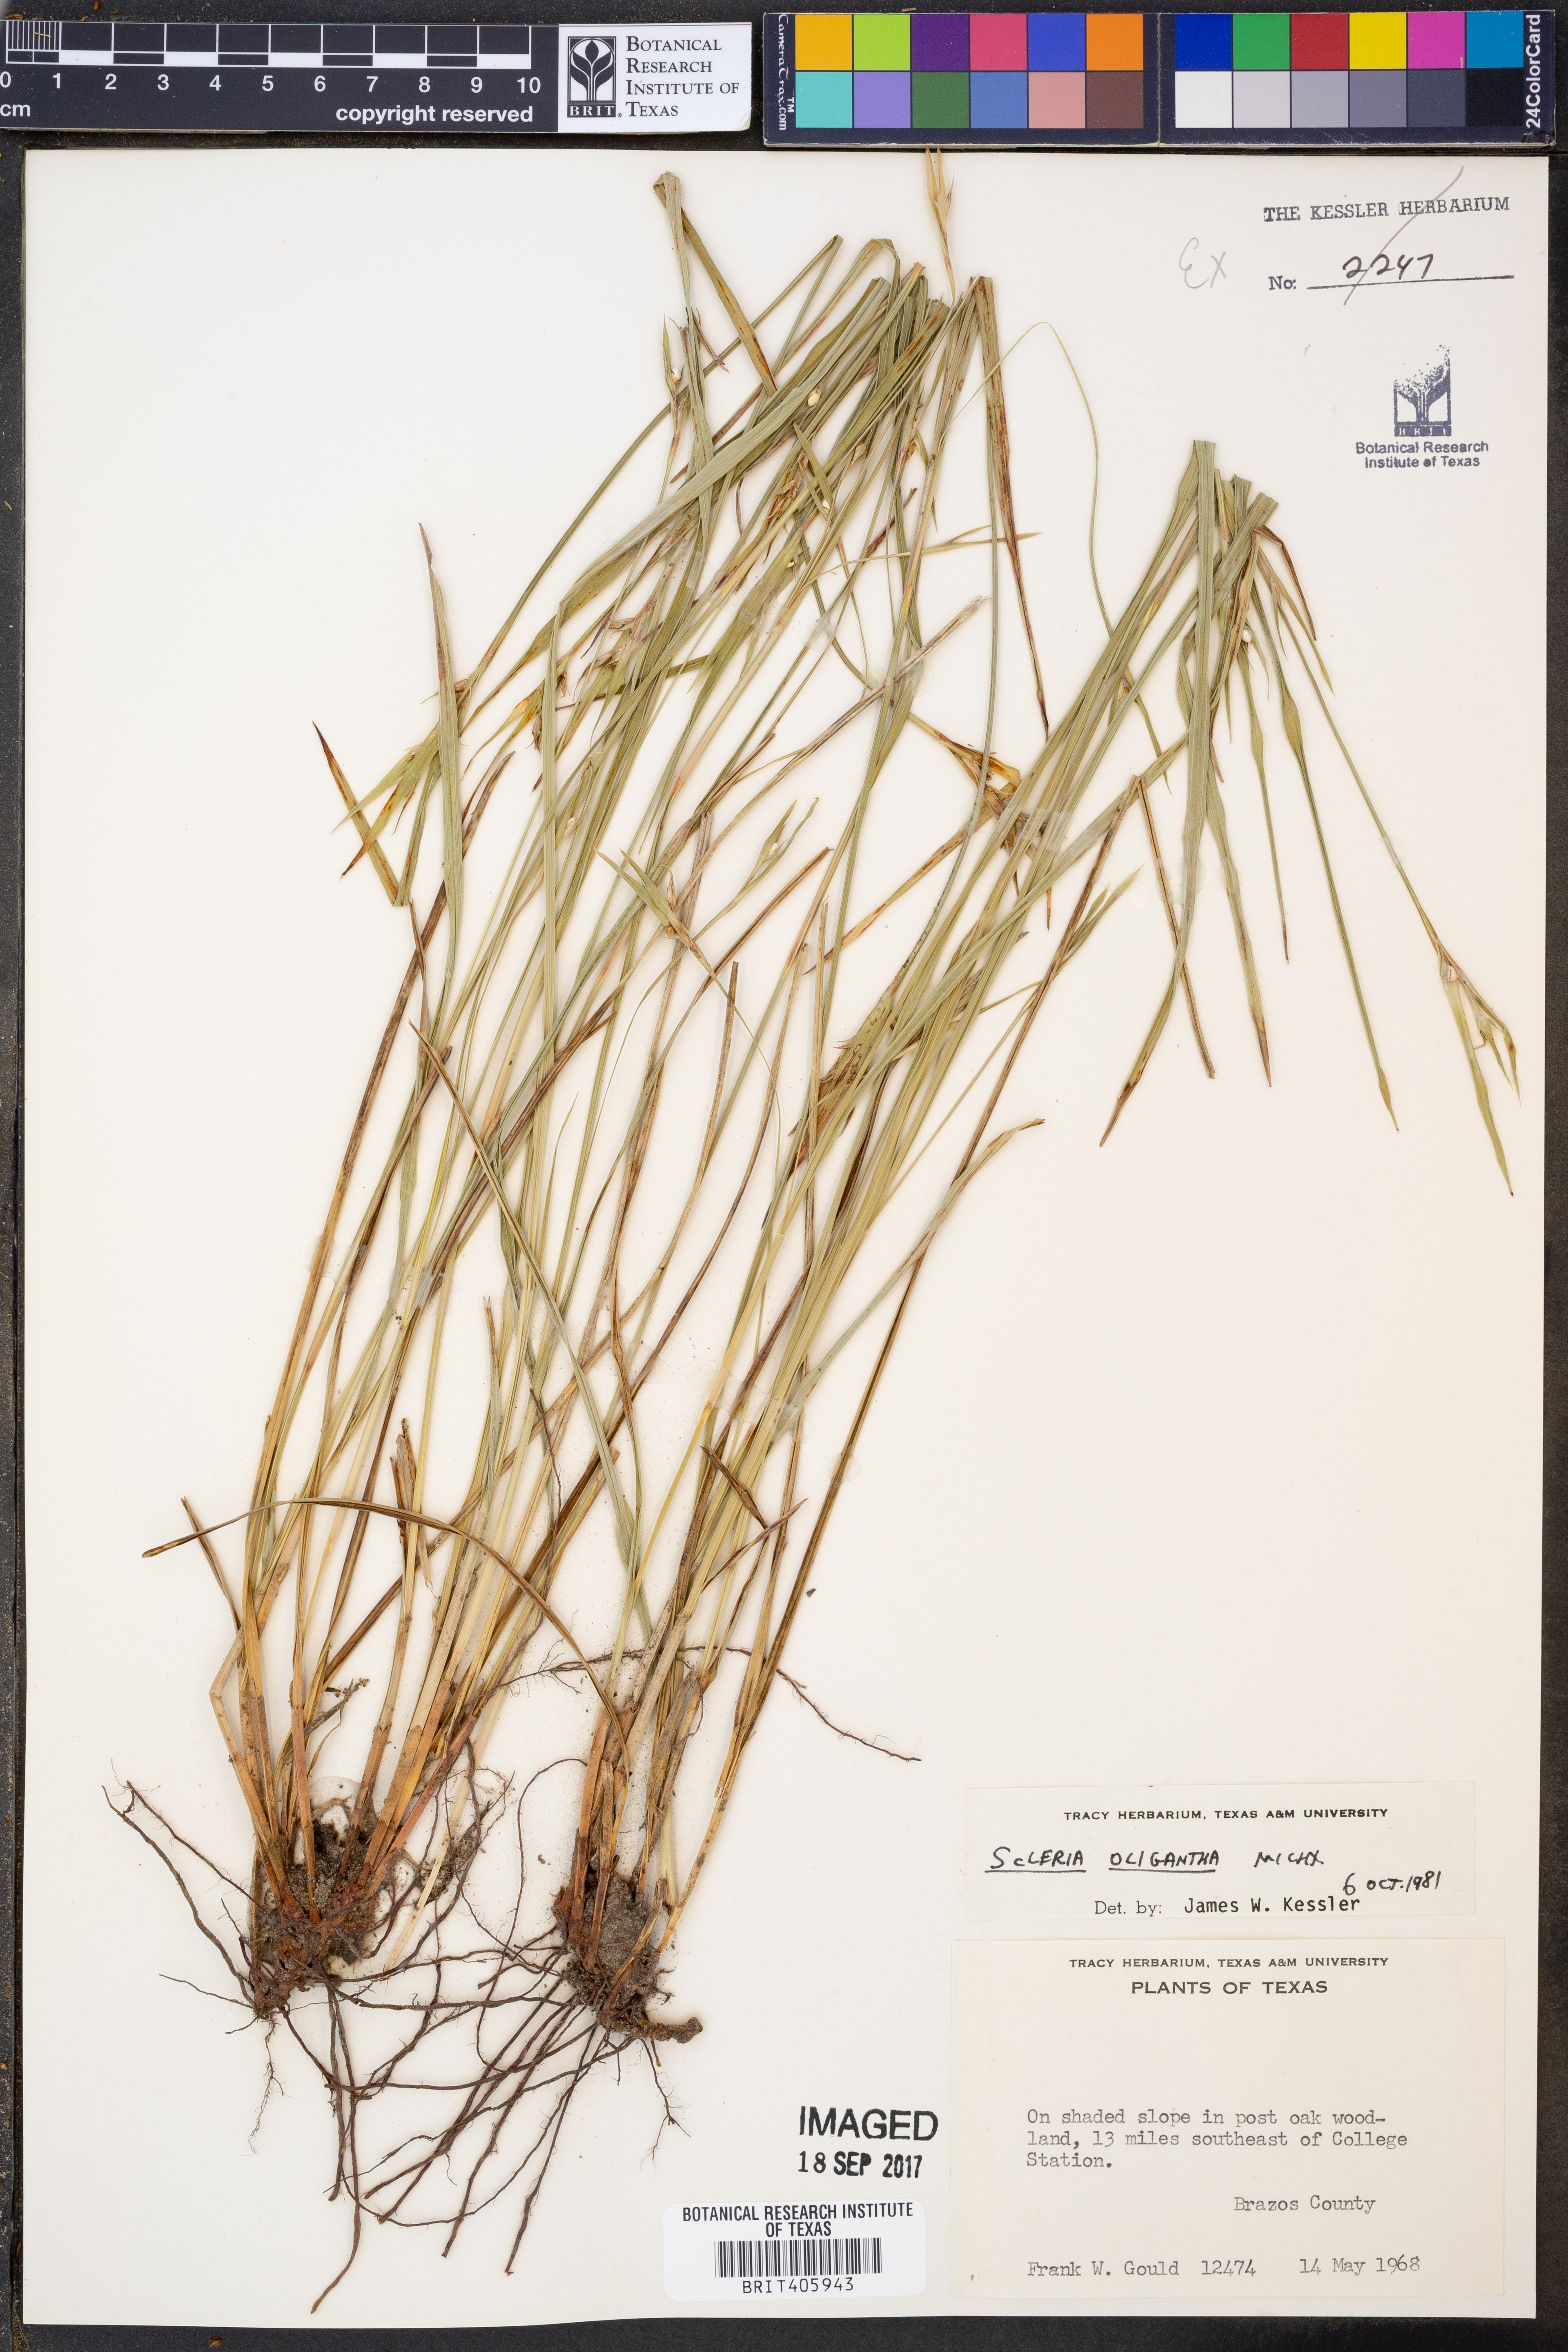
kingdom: Plantae
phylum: Tracheophyta
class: Liliopsida
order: Poales
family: Cyperaceae
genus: Scleria
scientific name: Scleria oligantha
